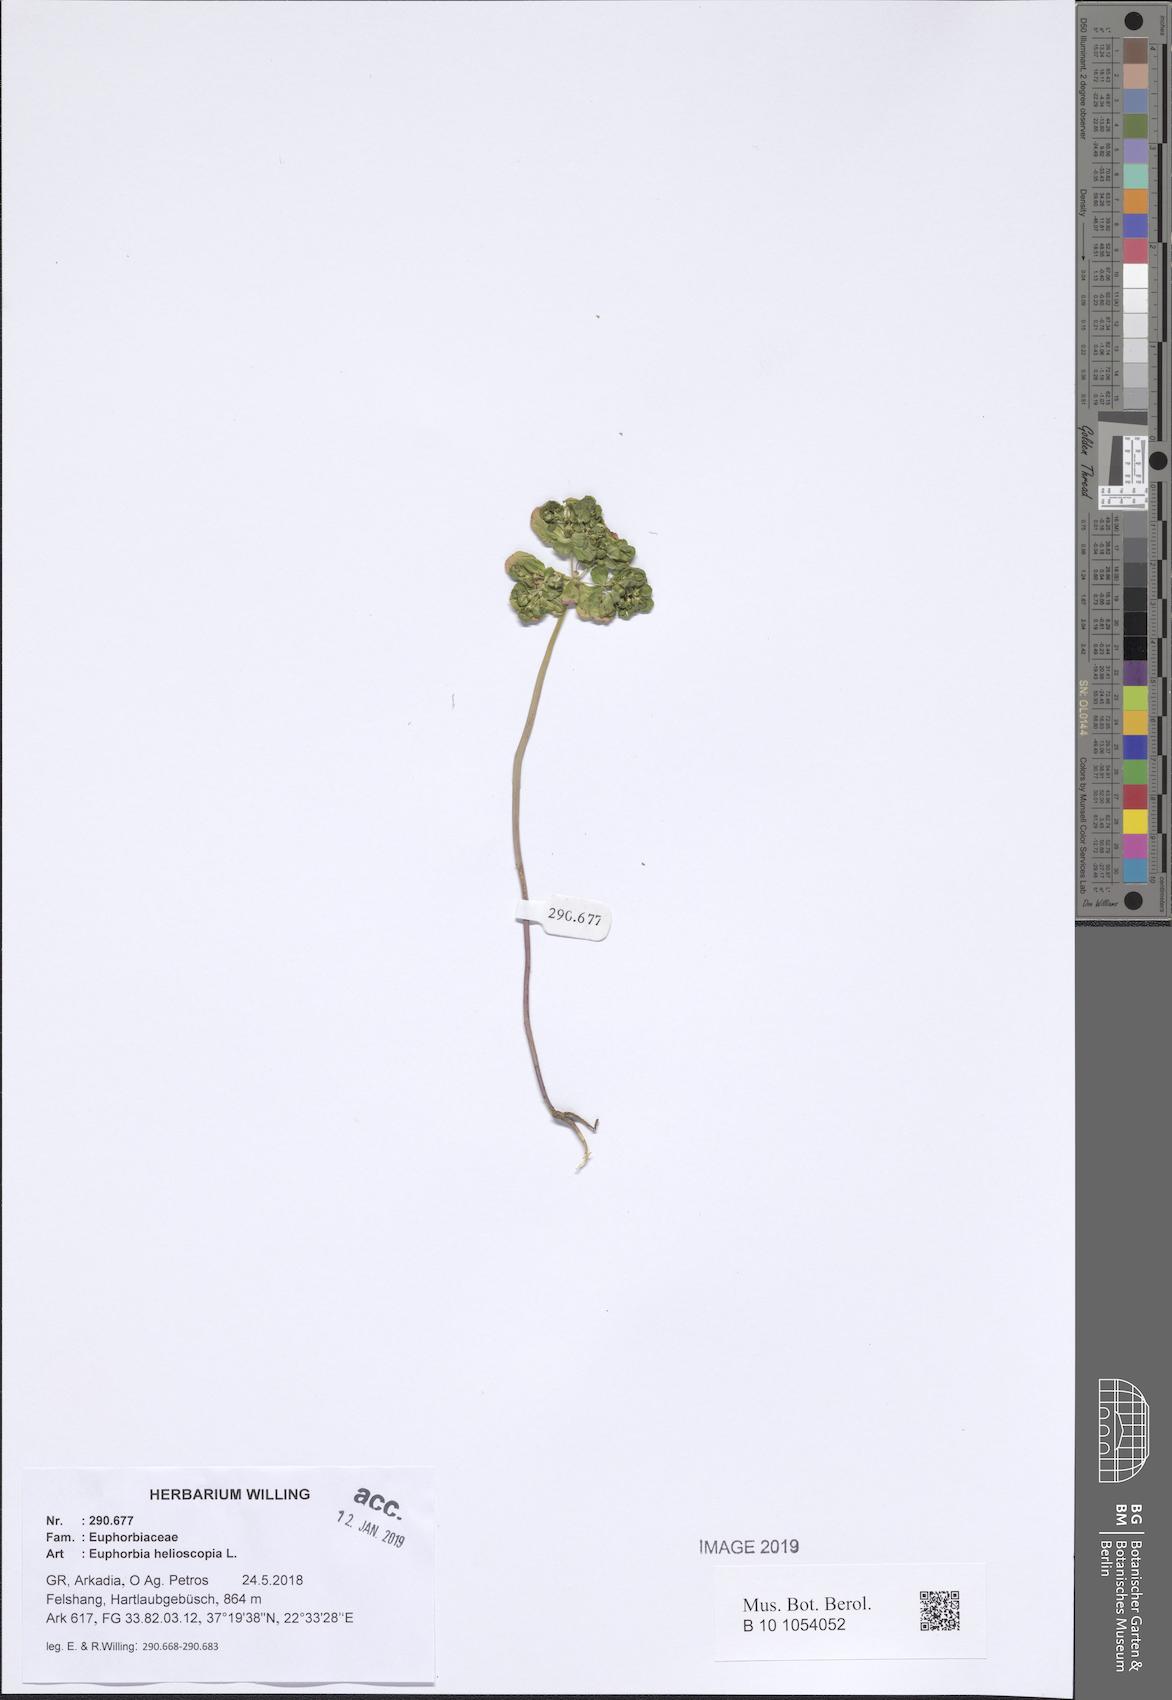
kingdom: Plantae
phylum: Tracheophyta
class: Magnoliopsida
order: Malpighiales
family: Euphorbiaceae
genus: Euphorbia
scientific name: Euphorbia helioscopia
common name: Sun spurge
